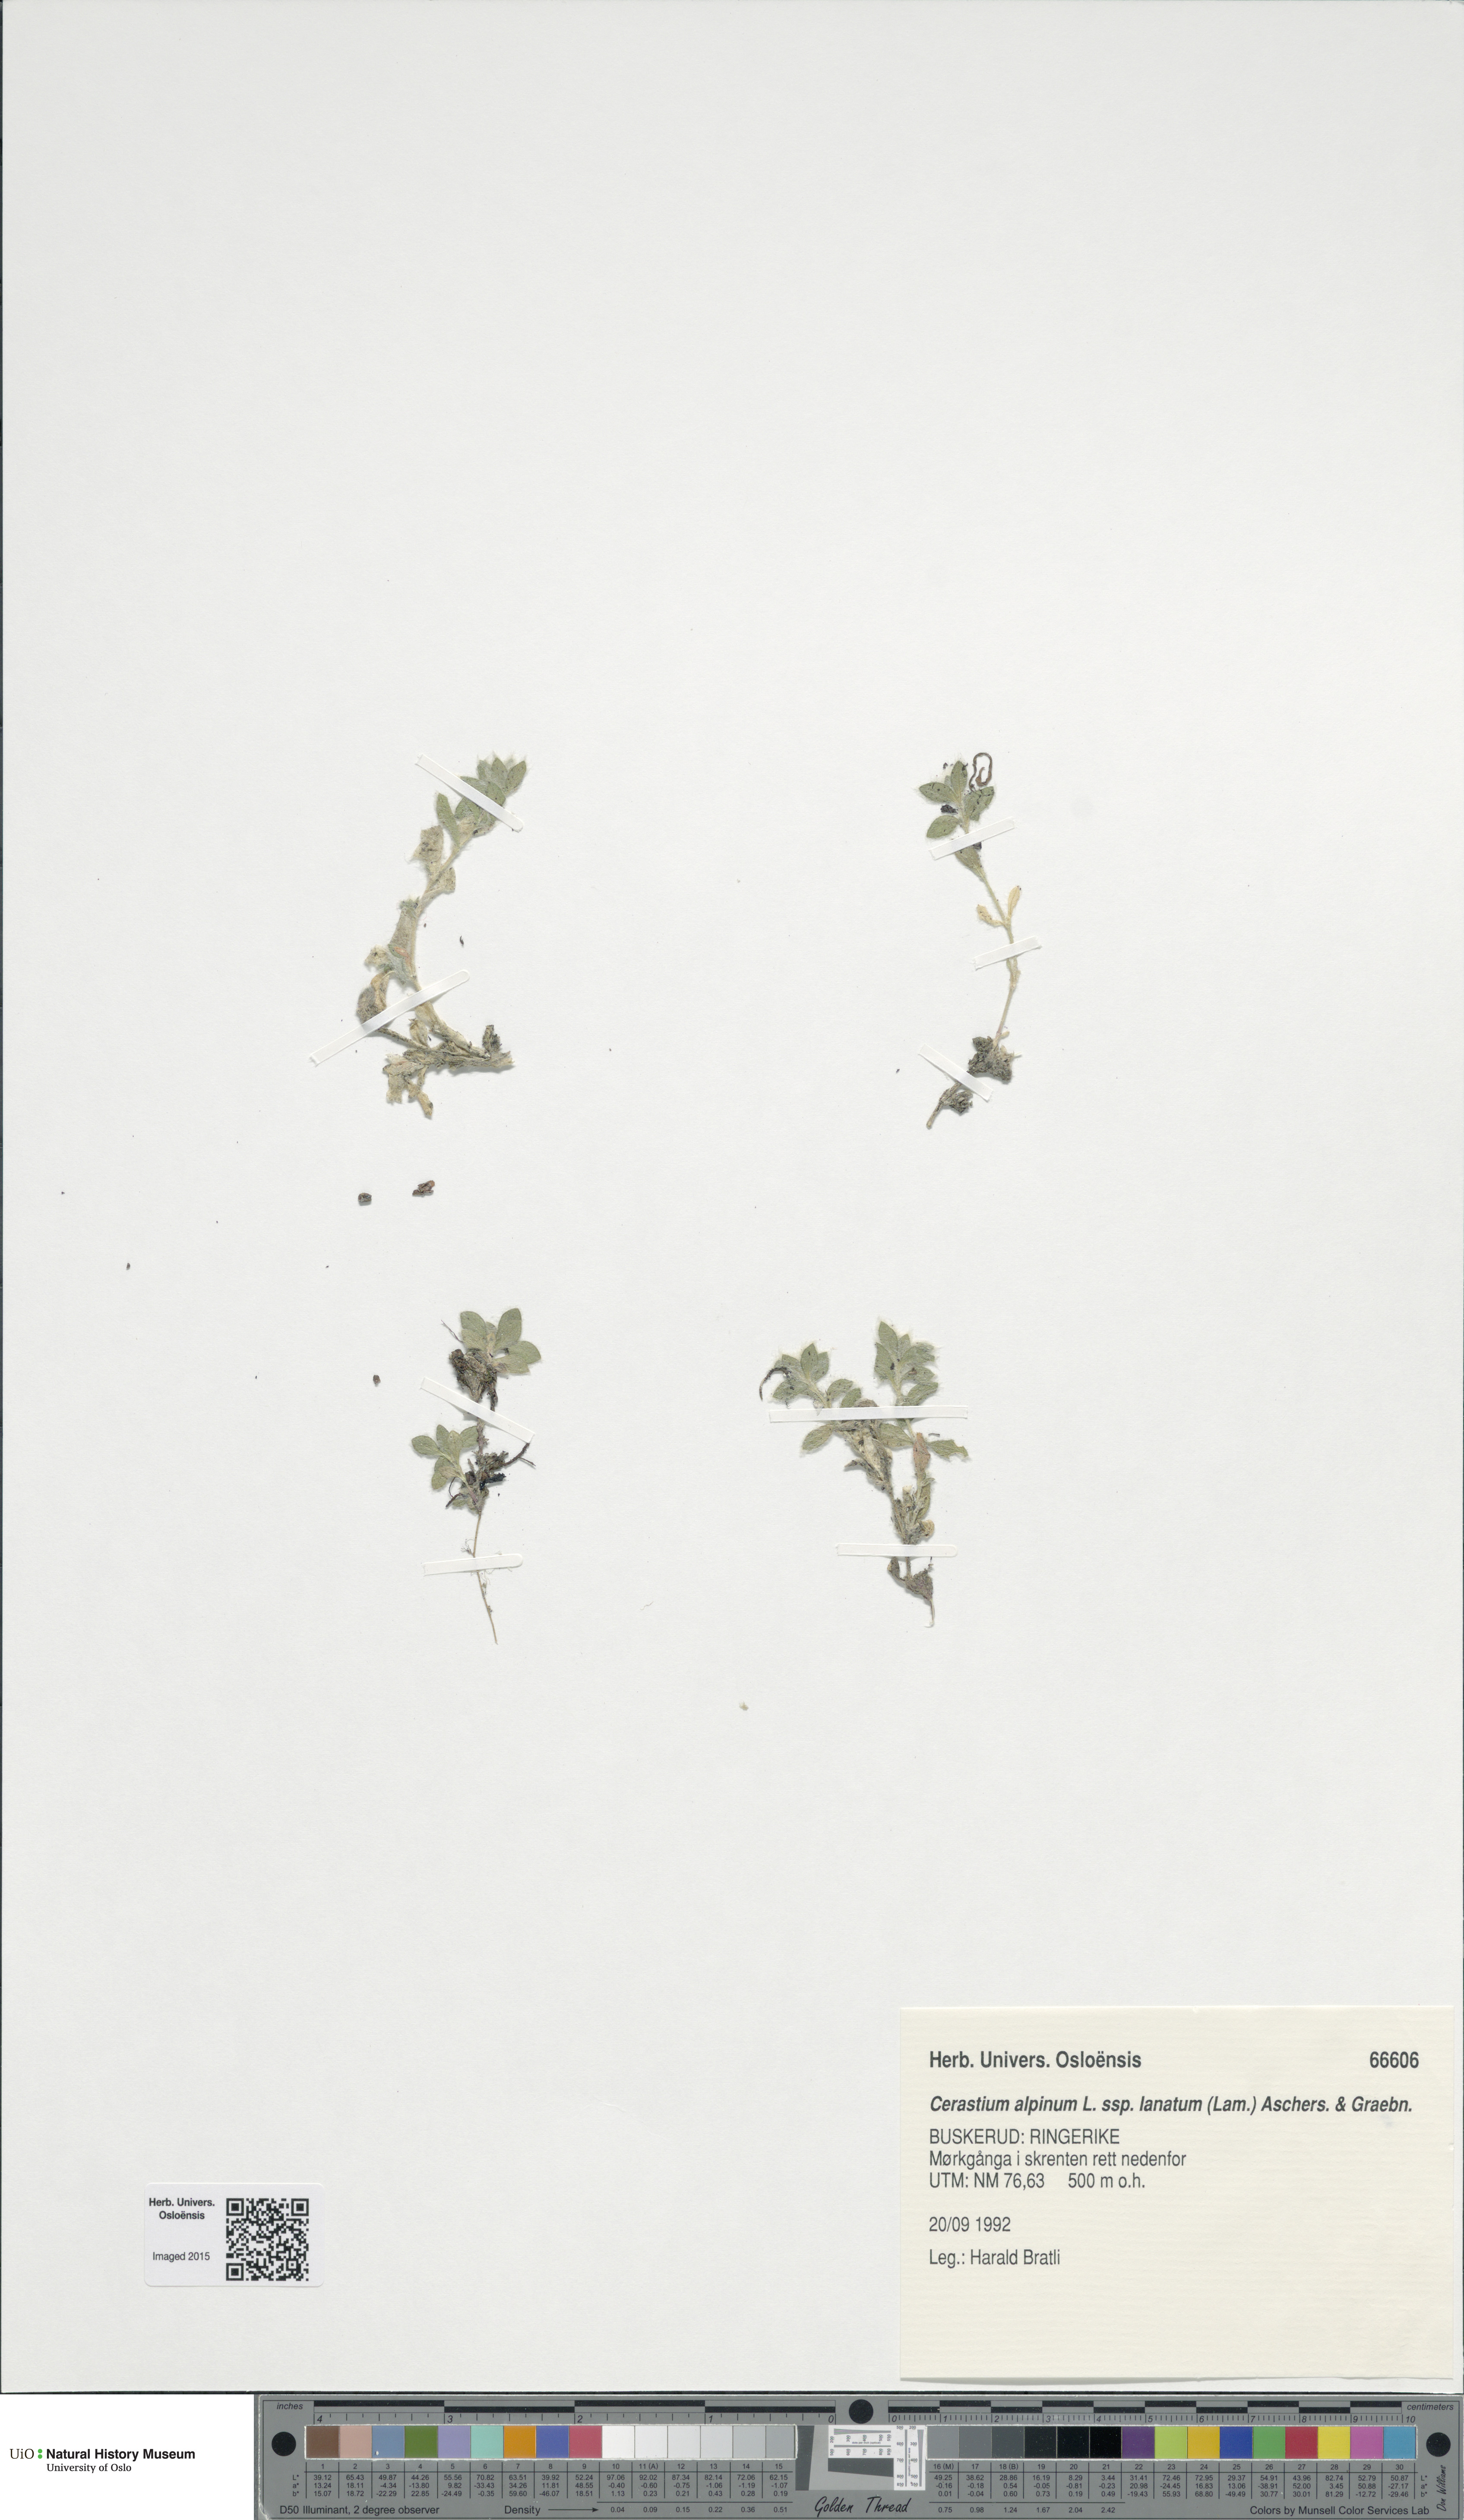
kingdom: Plantae
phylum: Tracheophyta
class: Magnoliopsida
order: Caryophyllales
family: Caryophyllaceae
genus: Cerastium
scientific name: Cerastium alpinum
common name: Alpine mouse-ear
